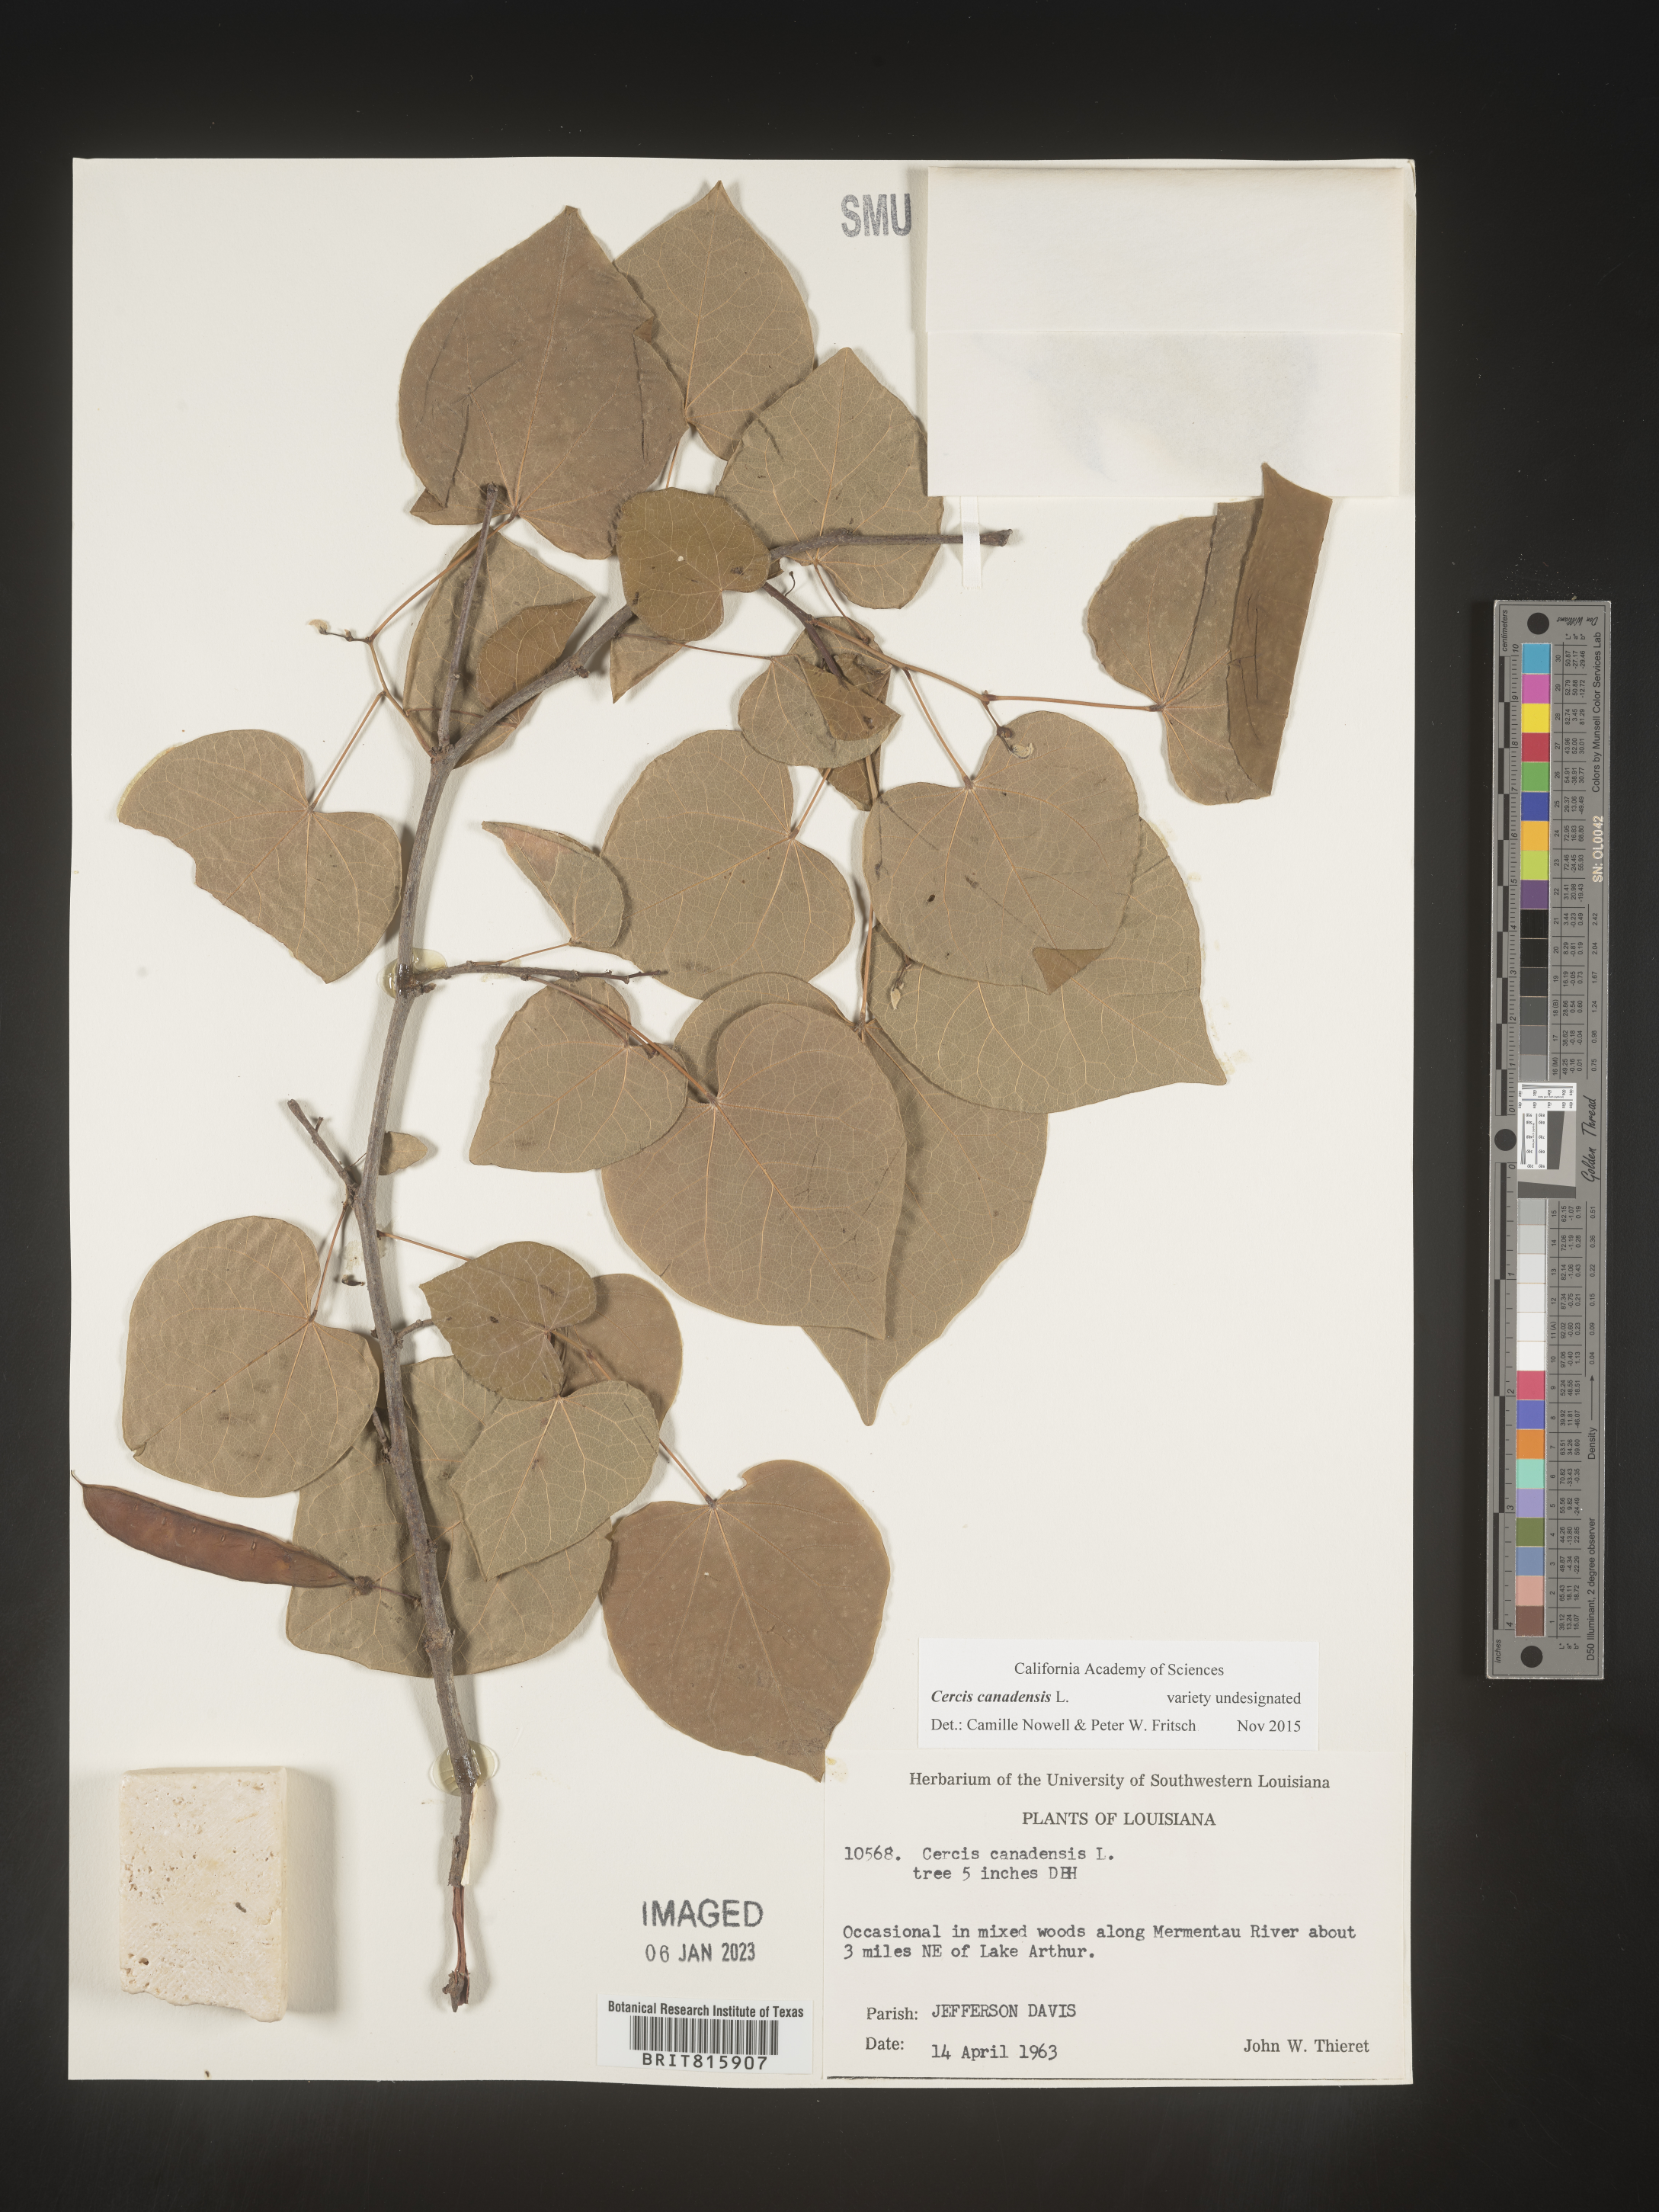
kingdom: Plantae
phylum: Tracheophyta
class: Magnoliopsida
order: Fabales
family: Fabaceae
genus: Cercis
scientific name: Cercis canadensis
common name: Eastern redbud
